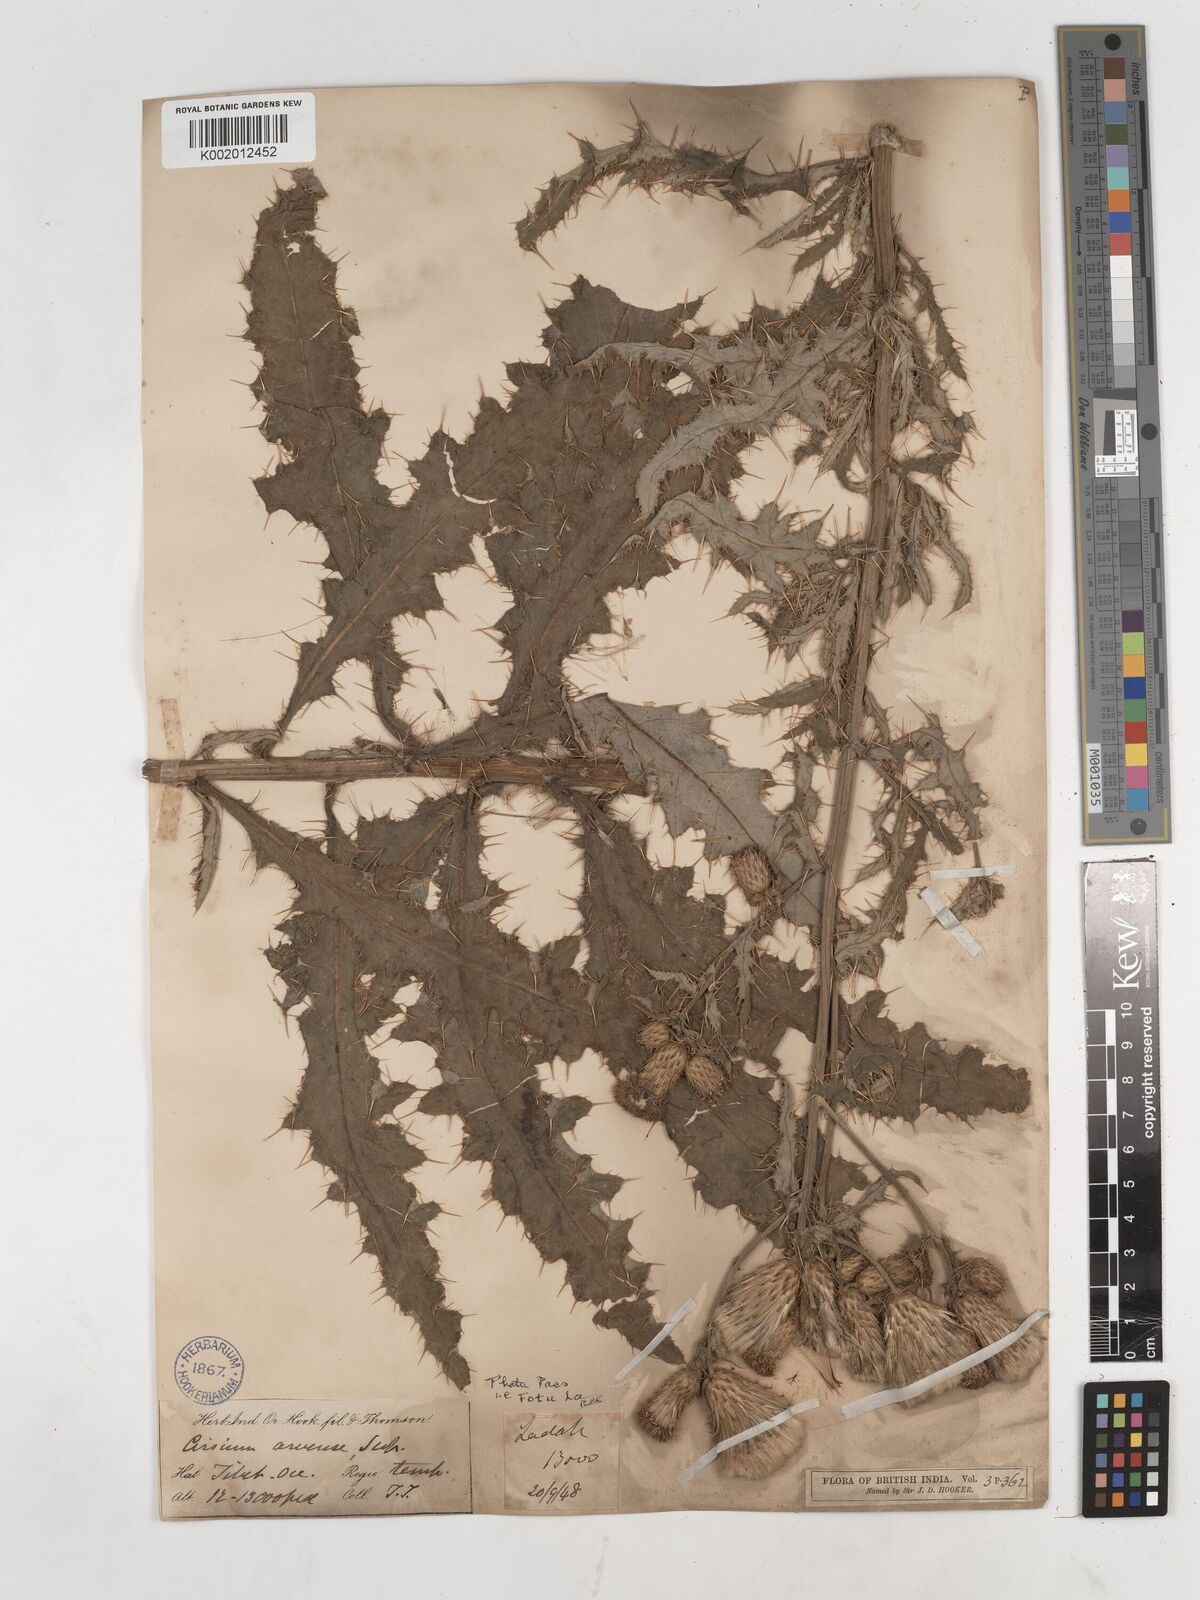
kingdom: Plantae
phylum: Tracheophyta
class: Magnoliopsida
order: Asterales
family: Asteraceae
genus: Cirsium
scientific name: Cirsium arvense
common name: Creeping thistle
